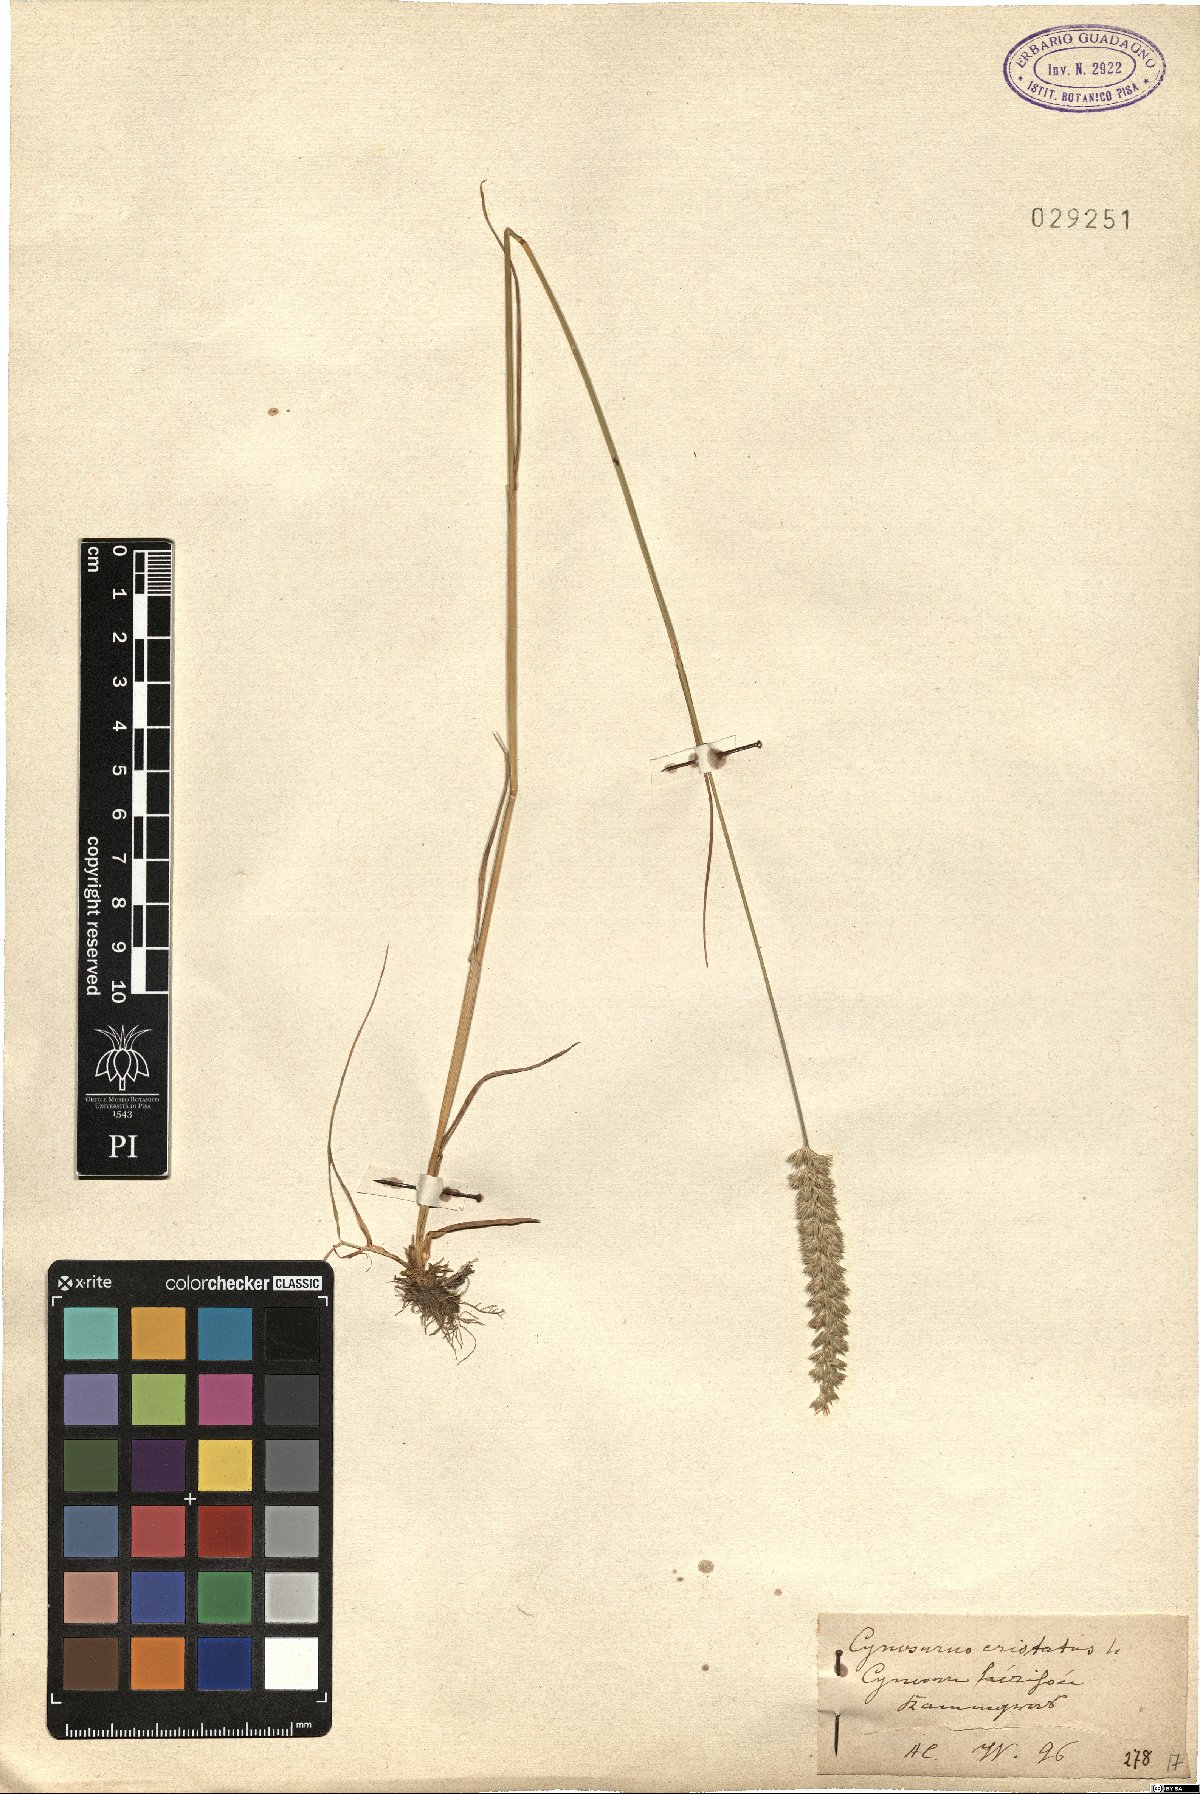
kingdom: Plantae
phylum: Tracheophyta
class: Liliopsida
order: Poales
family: Poaceae
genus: Cynosurus
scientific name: Cynosurus cristatus
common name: Crested dog's-tail
